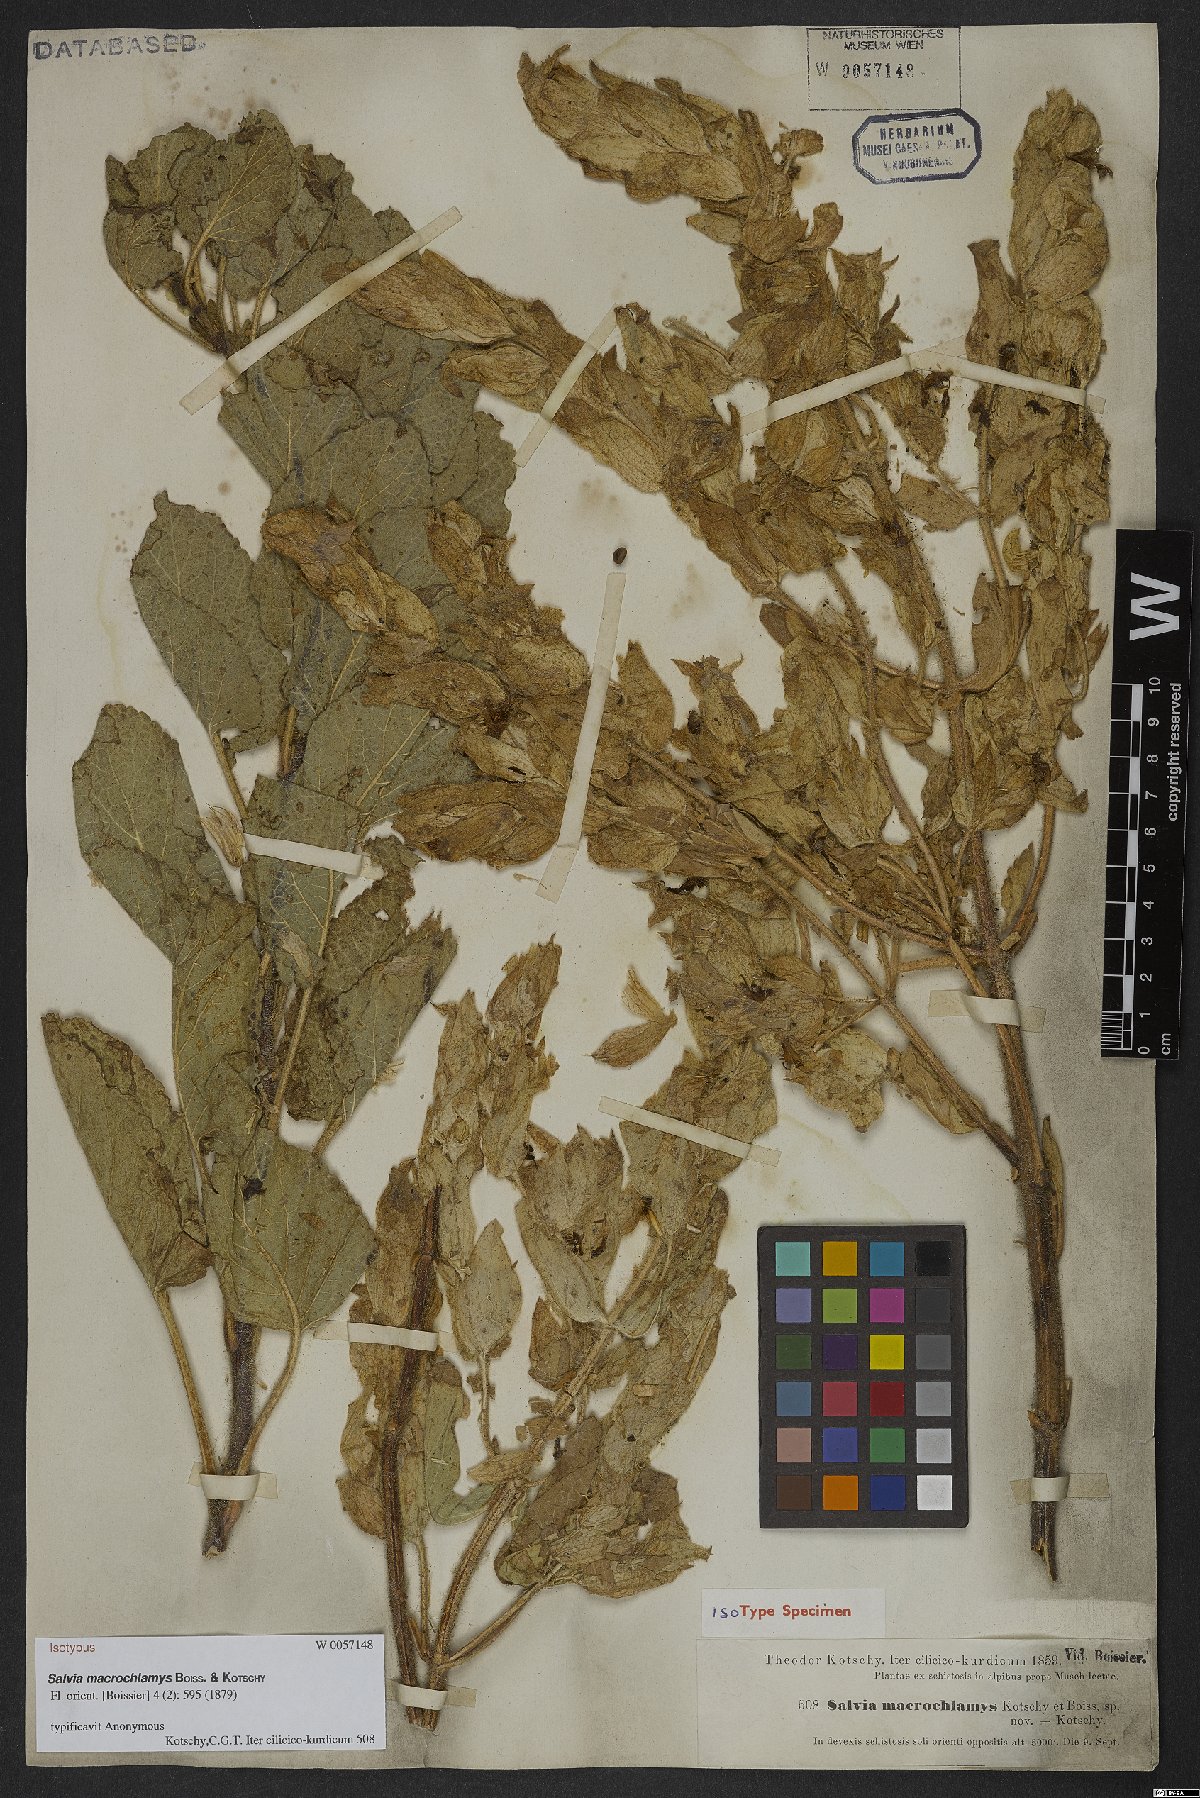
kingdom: Plantae
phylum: Tracheophyta
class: Magnoliopsida
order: Lamiales
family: Lamiaceae
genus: Salvia
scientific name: Salvia macrochlamys
